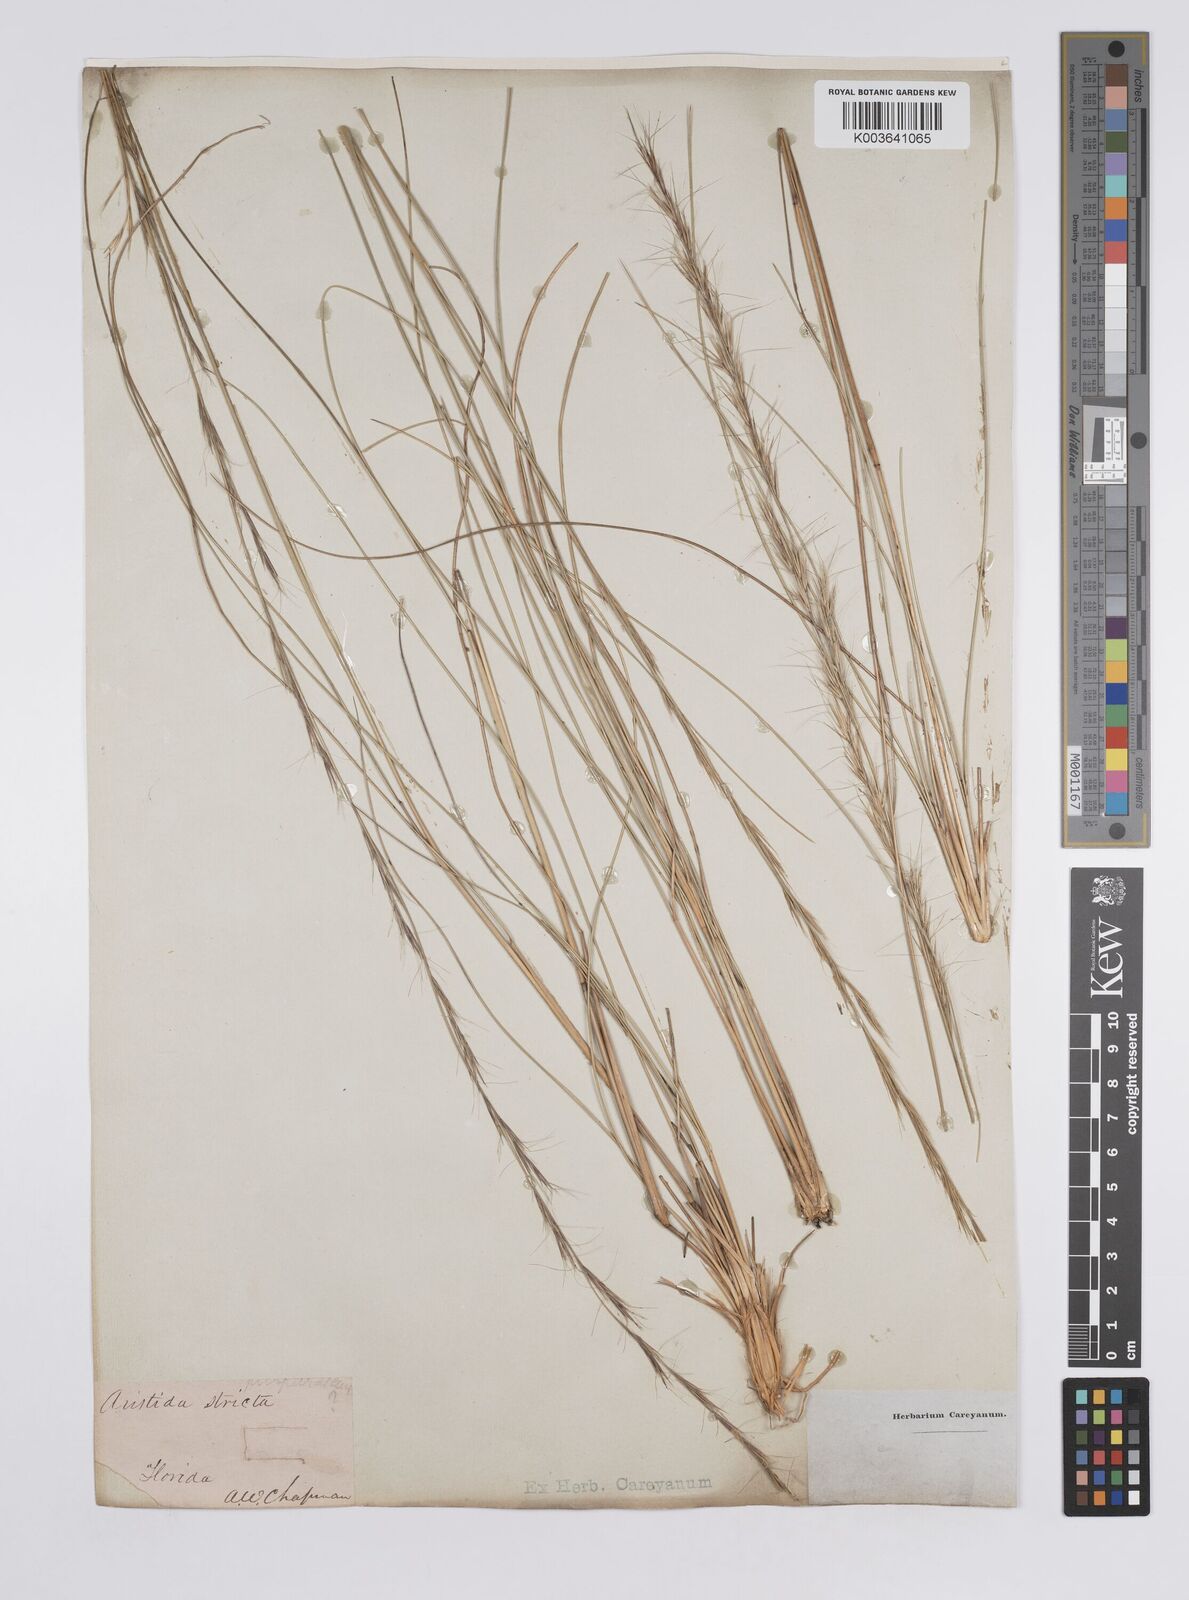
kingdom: Plantae
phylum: Tracheophyta
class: Liliopsida
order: Poales
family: Poaceae
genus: Aristida
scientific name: Aristida stricta
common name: Pineland three-awn
